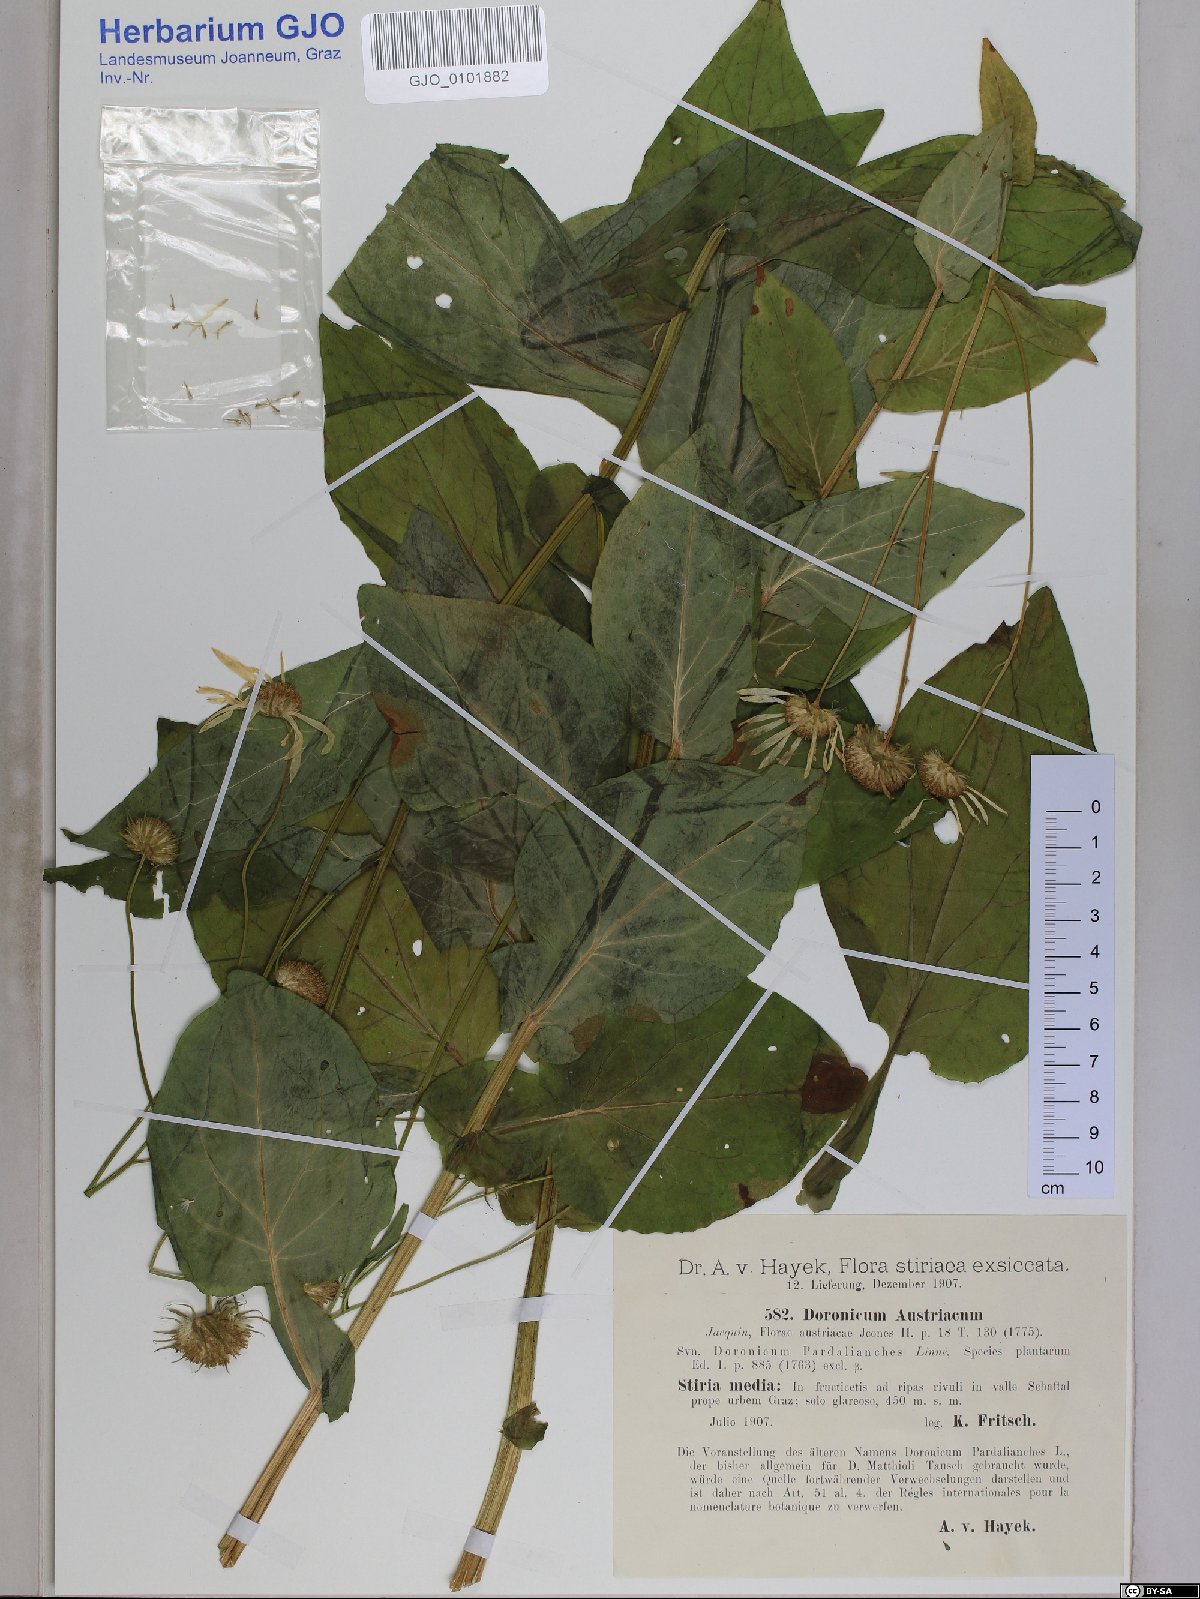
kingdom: Plantae
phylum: Tracheophyta
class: Magnoliopsida
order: Asterales
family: Asteraceae
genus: Doronicum
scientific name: Doronicum austriacum
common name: Austrian leopard's-bane
